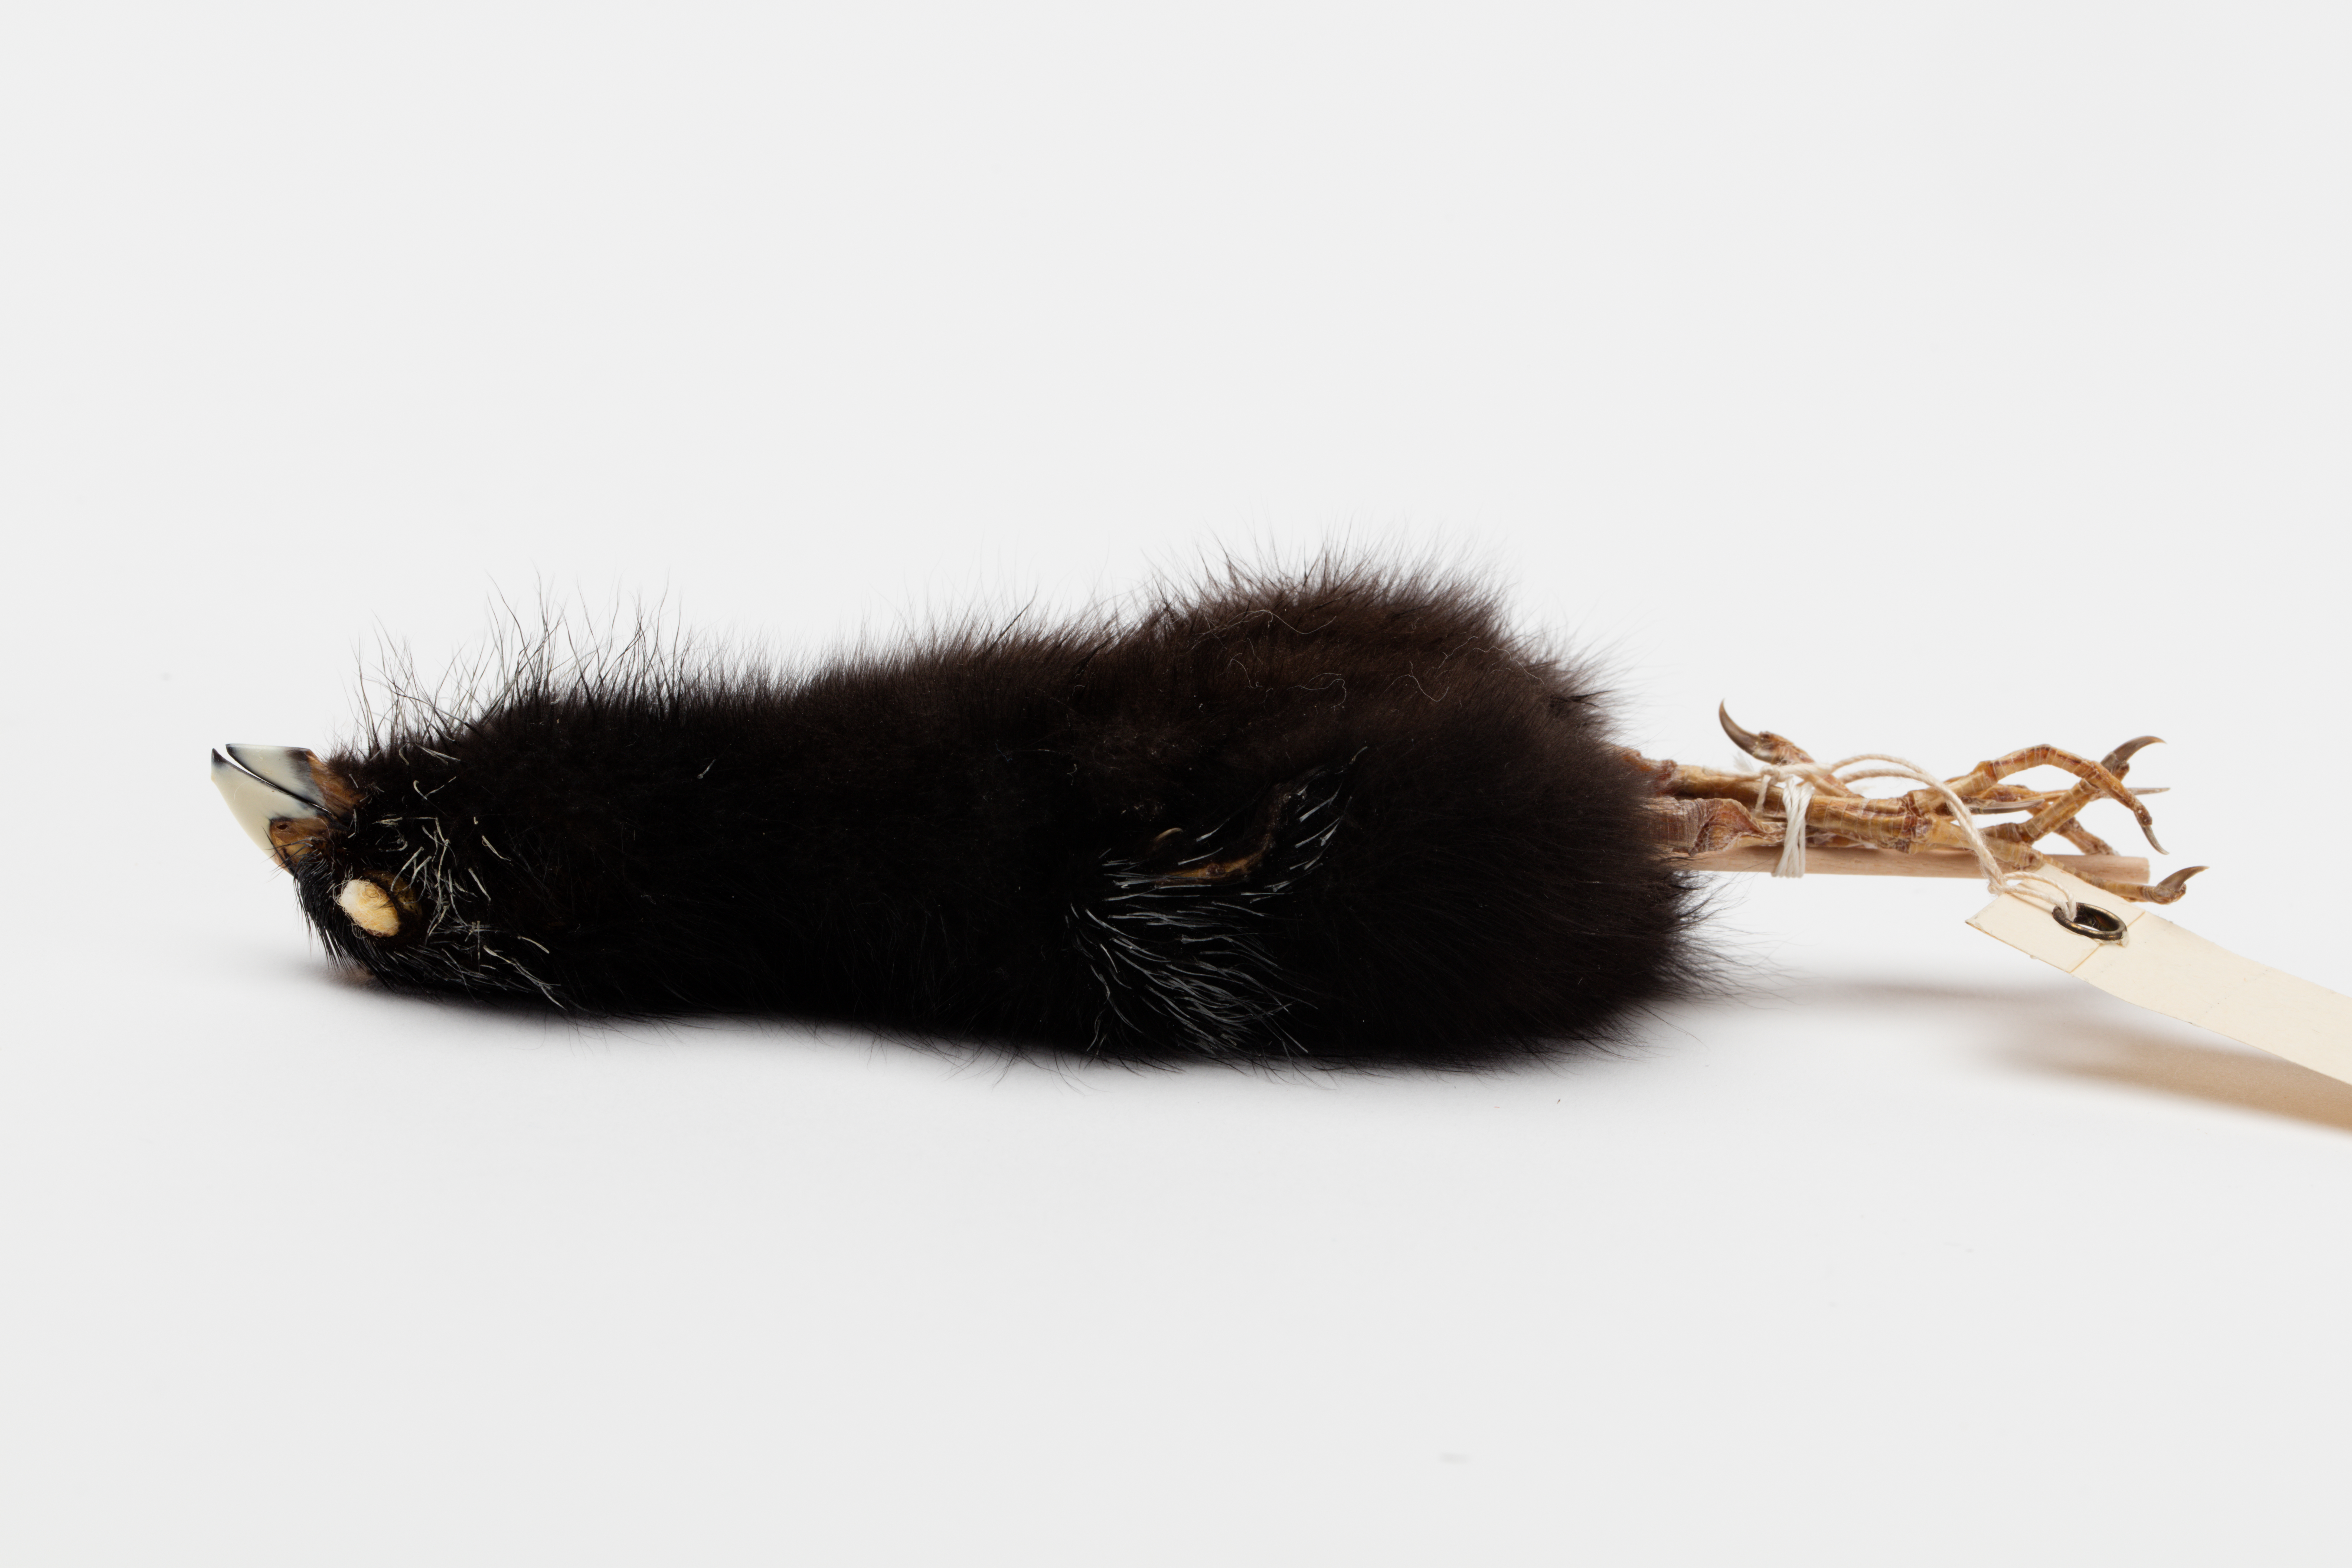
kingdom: Animalia
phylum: Chordata
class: Aves
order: Gruiformes
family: Rallidae
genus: Porphyrio
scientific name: Porphyrio melanotus
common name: Australasian swamphen
